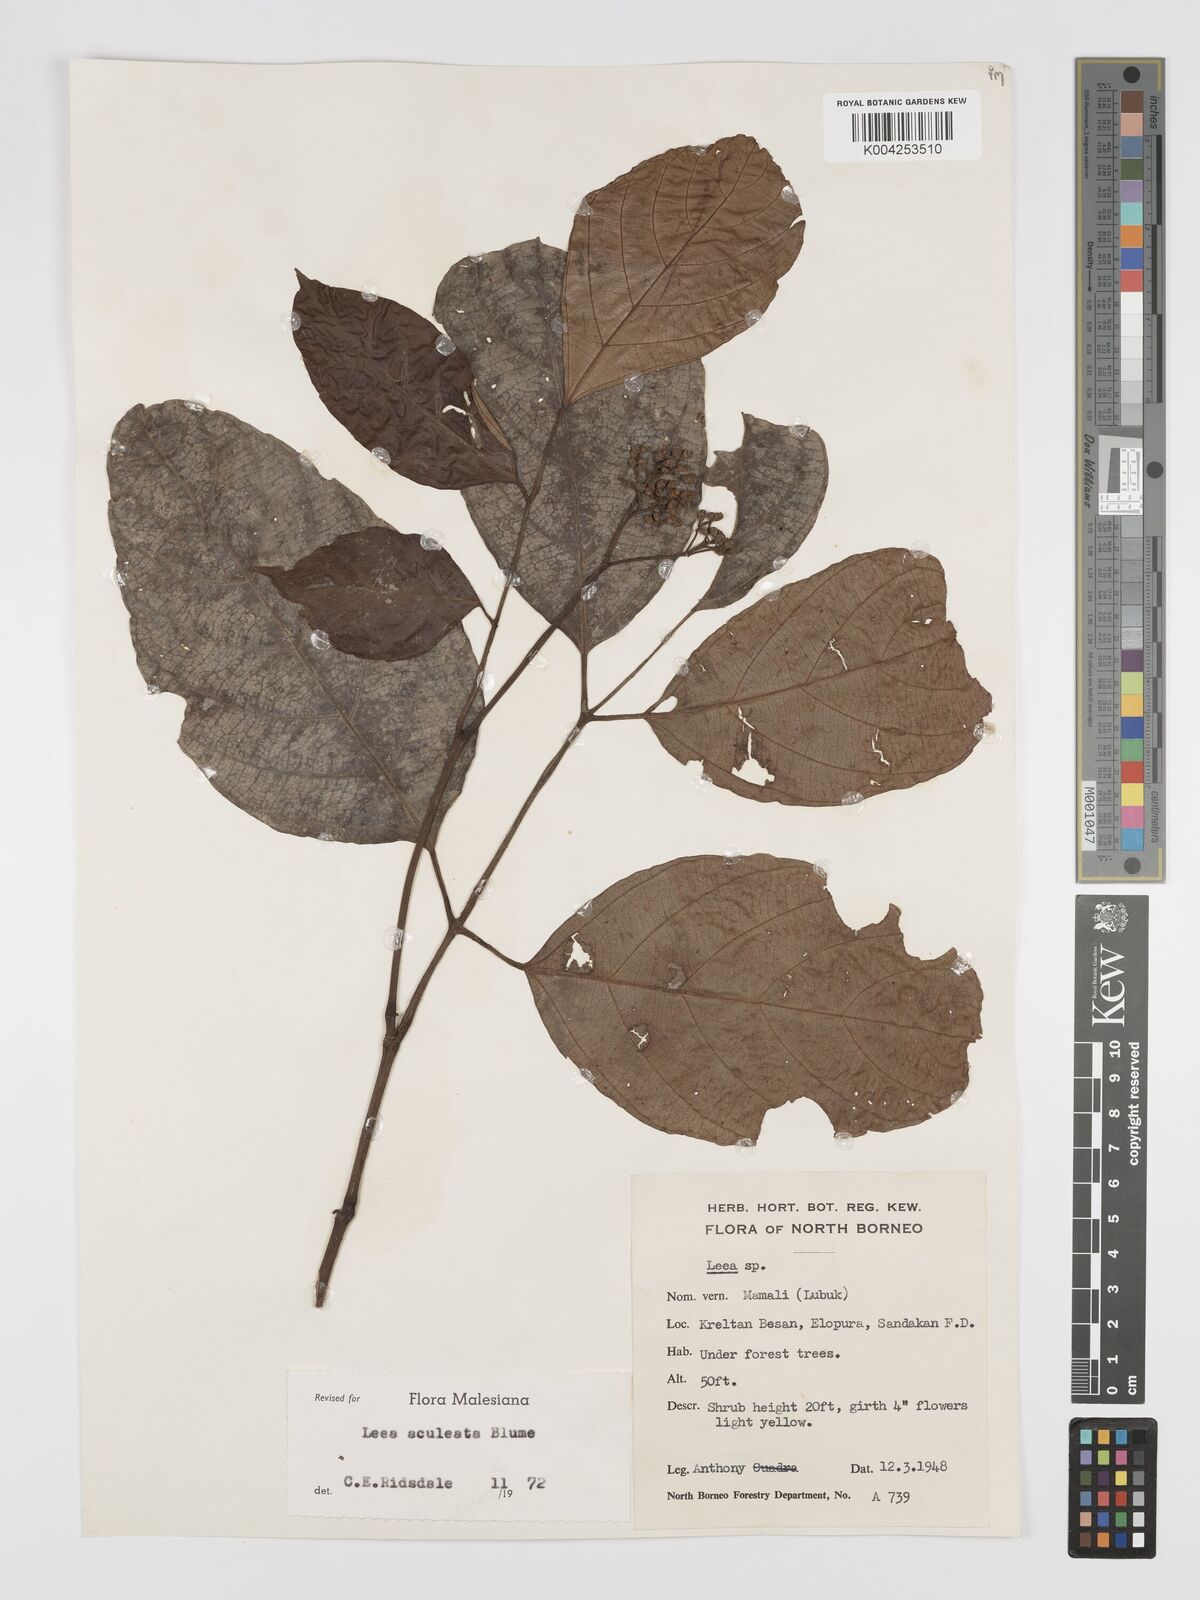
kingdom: Plantae
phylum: Tracheophyta
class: Magnoliopsida
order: Vitales
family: Vitaceae
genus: Leea
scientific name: Leea aculeata
